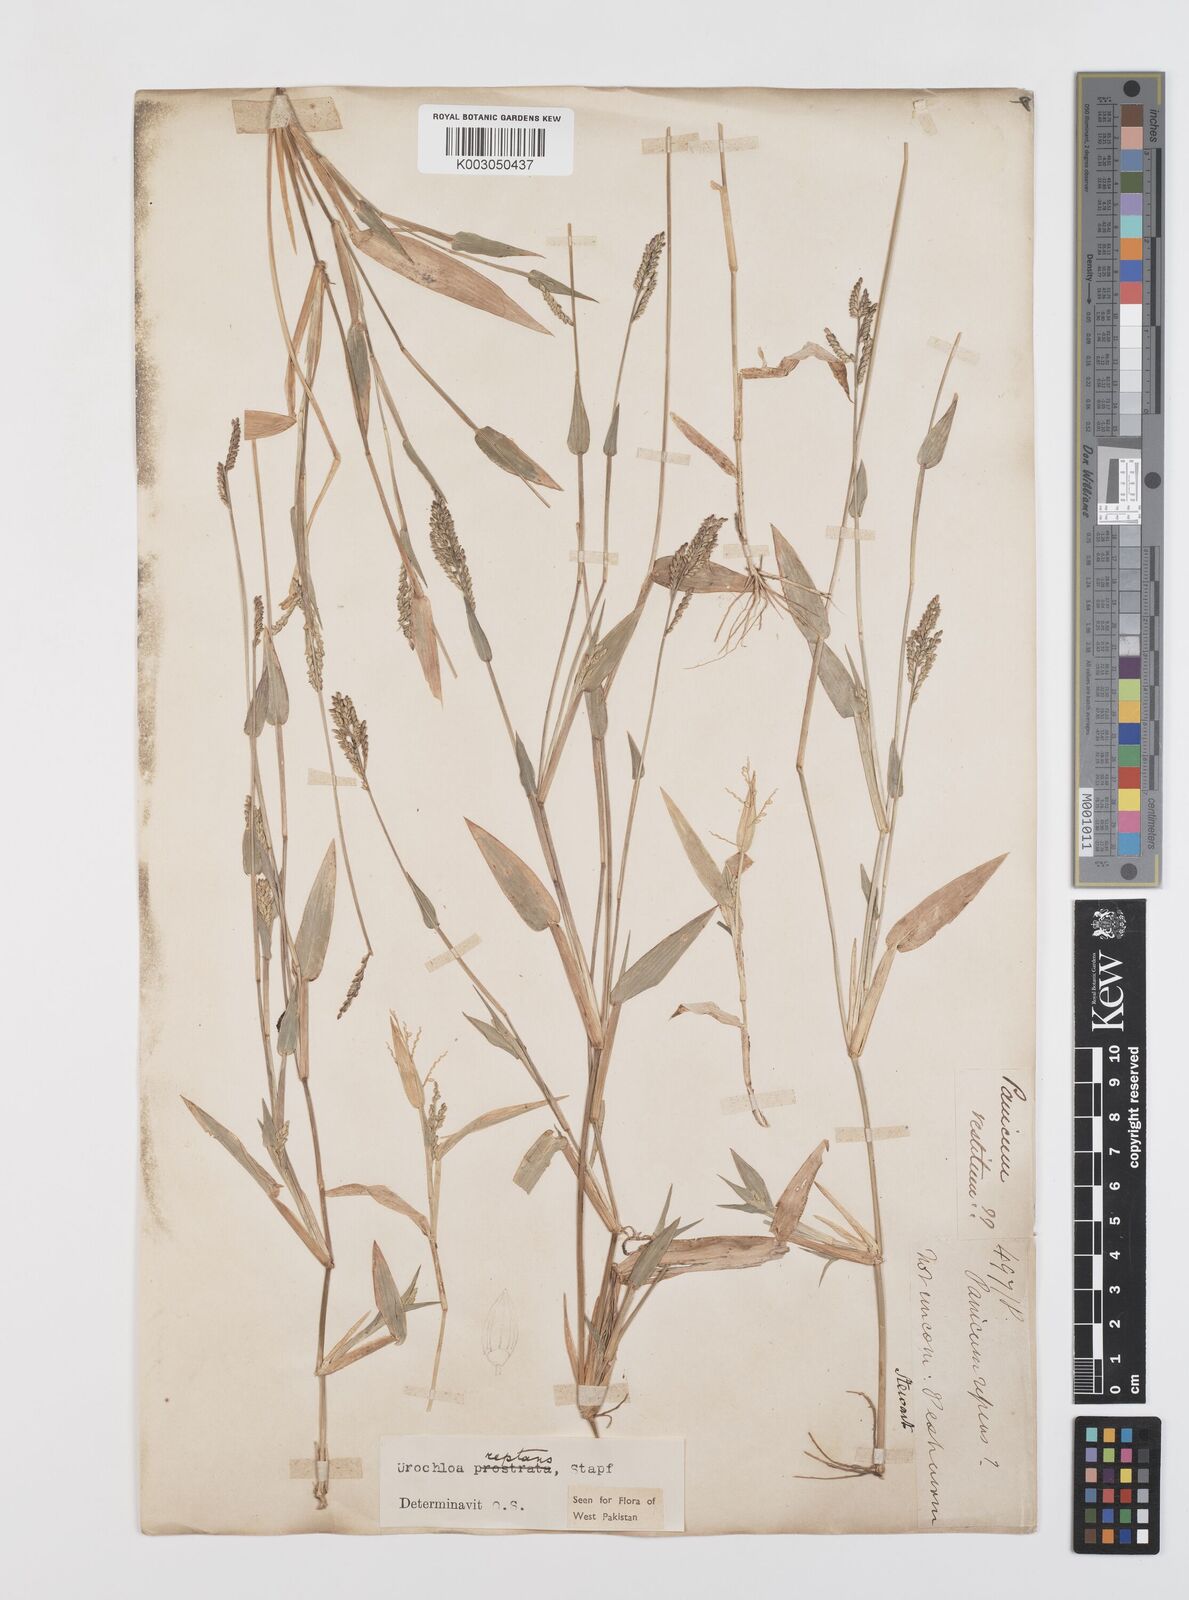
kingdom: Plantae
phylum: Tracheophyta
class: Liliopsida
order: Poales
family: Poaceae
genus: Urochloa
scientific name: Urochloa reptans
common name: Sprawling signalgrass
